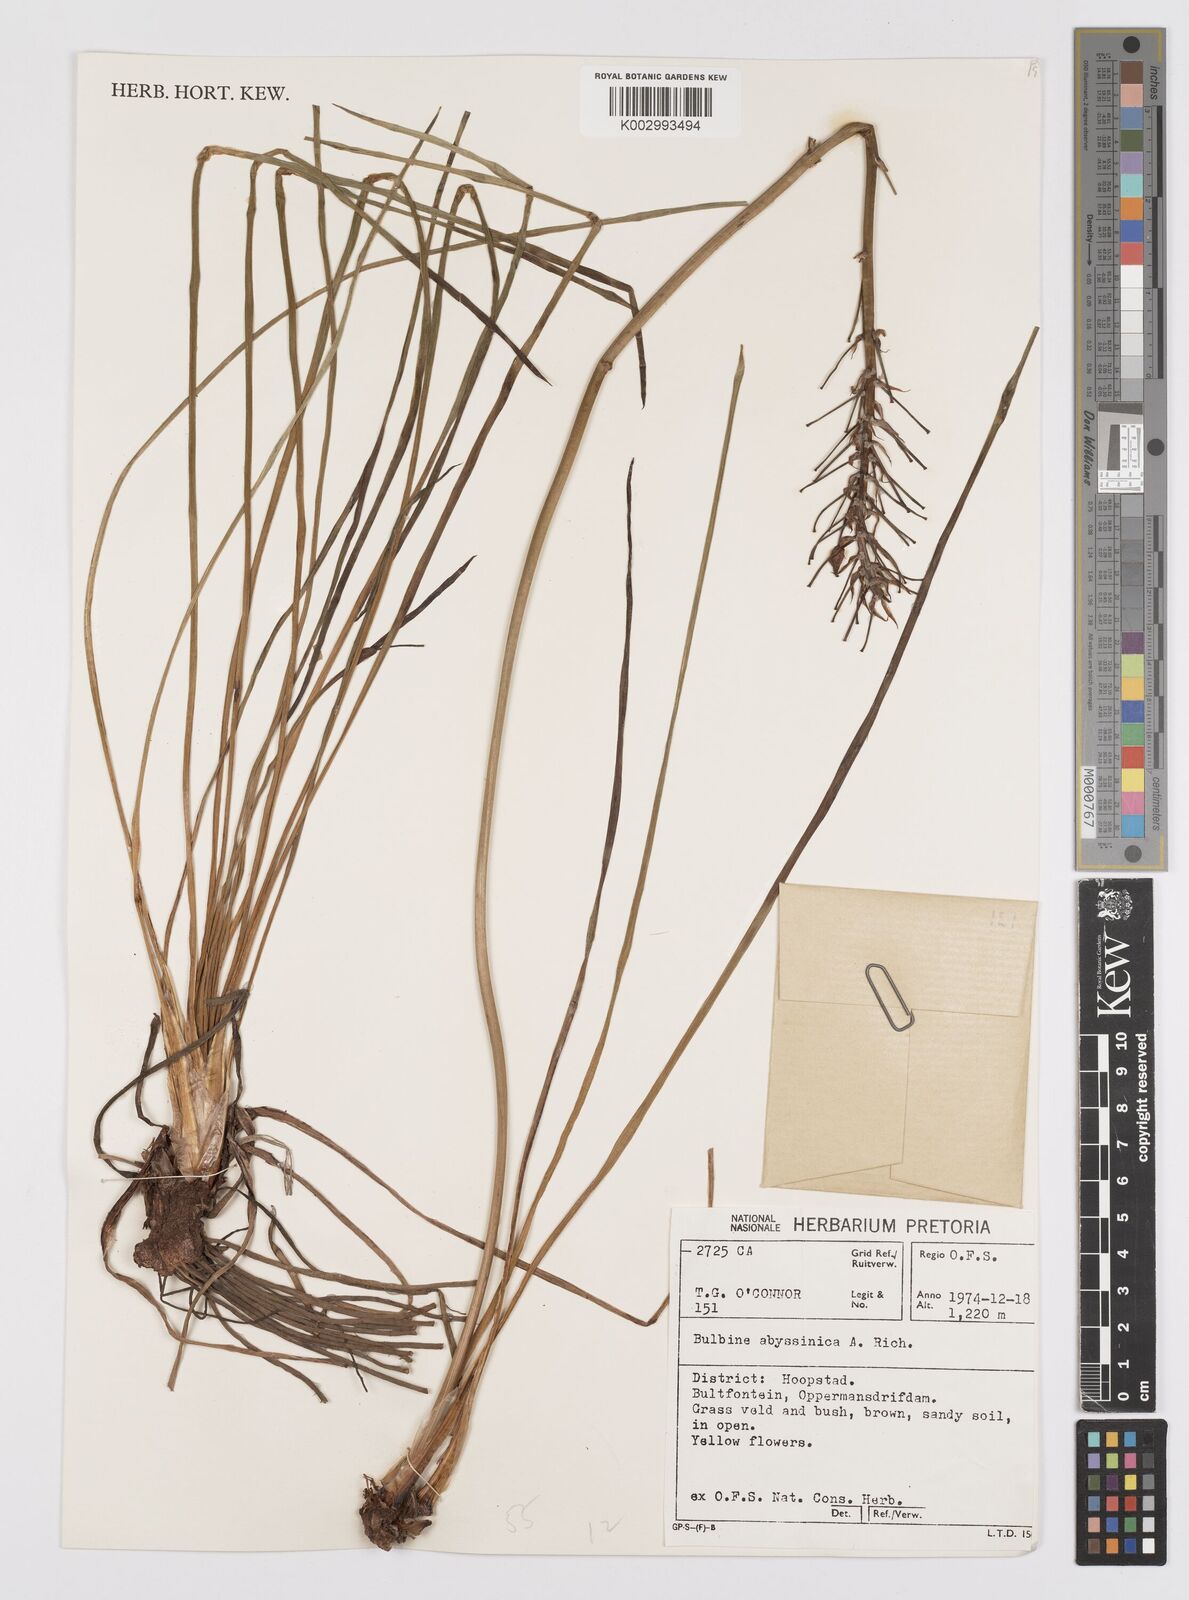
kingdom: Plantae
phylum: Tracheophyta
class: Liliopsida
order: Asparagales
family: Asphodelaceae
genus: Bulbine
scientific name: Bulbine abyssinica
